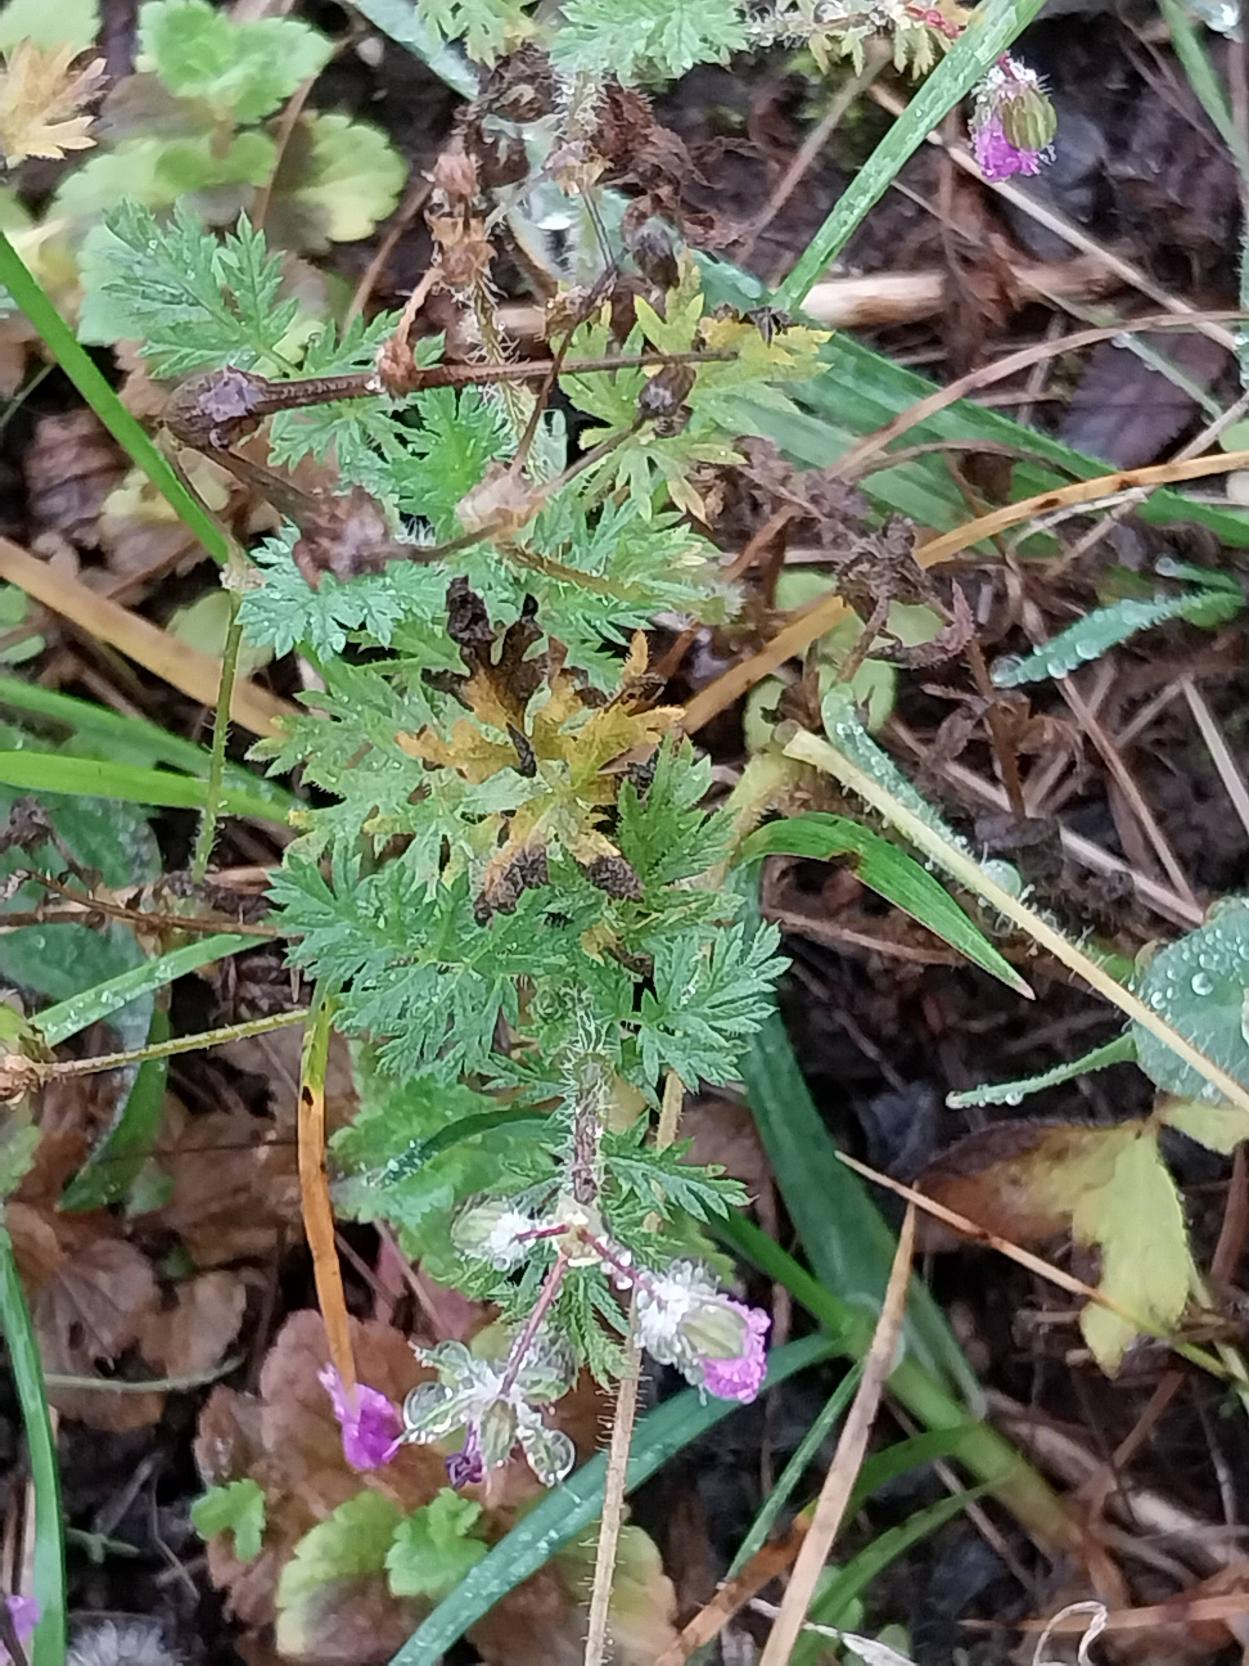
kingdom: Plantae
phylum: Tracheophyta
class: Magnoliopsida
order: Geraniales
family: Geraniaceae
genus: Erodium
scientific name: Erodium cicutarium
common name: Hejrenæb
